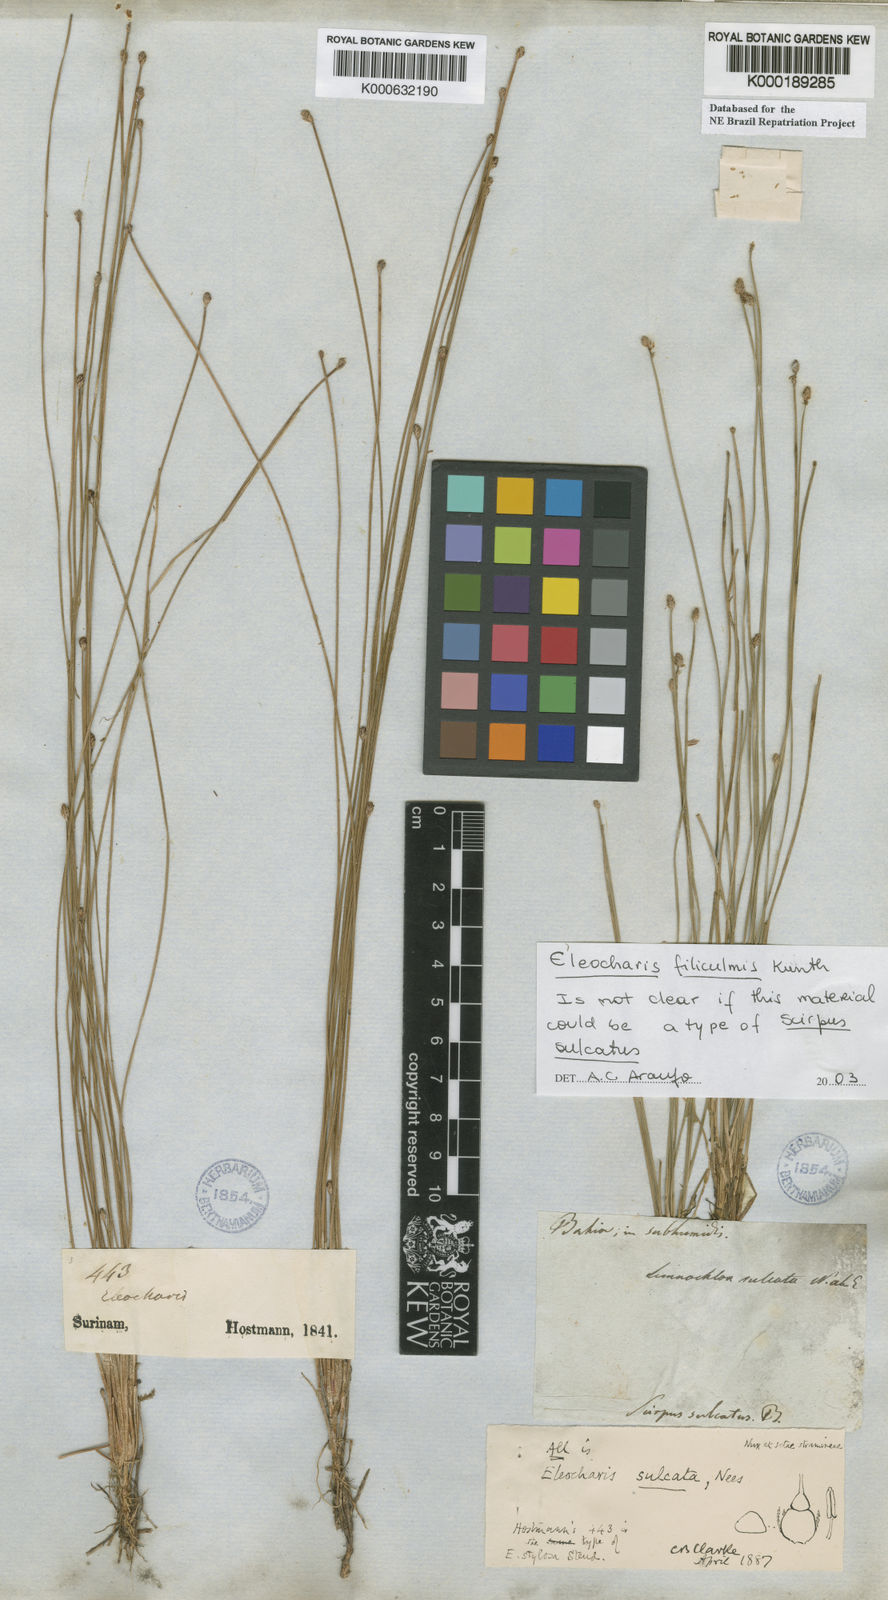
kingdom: Plantae
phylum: Tracheophyta
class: Liliopsida
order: Poales
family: Cyperaceae
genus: Eleocharis
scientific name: Eleocharis filiculmis
